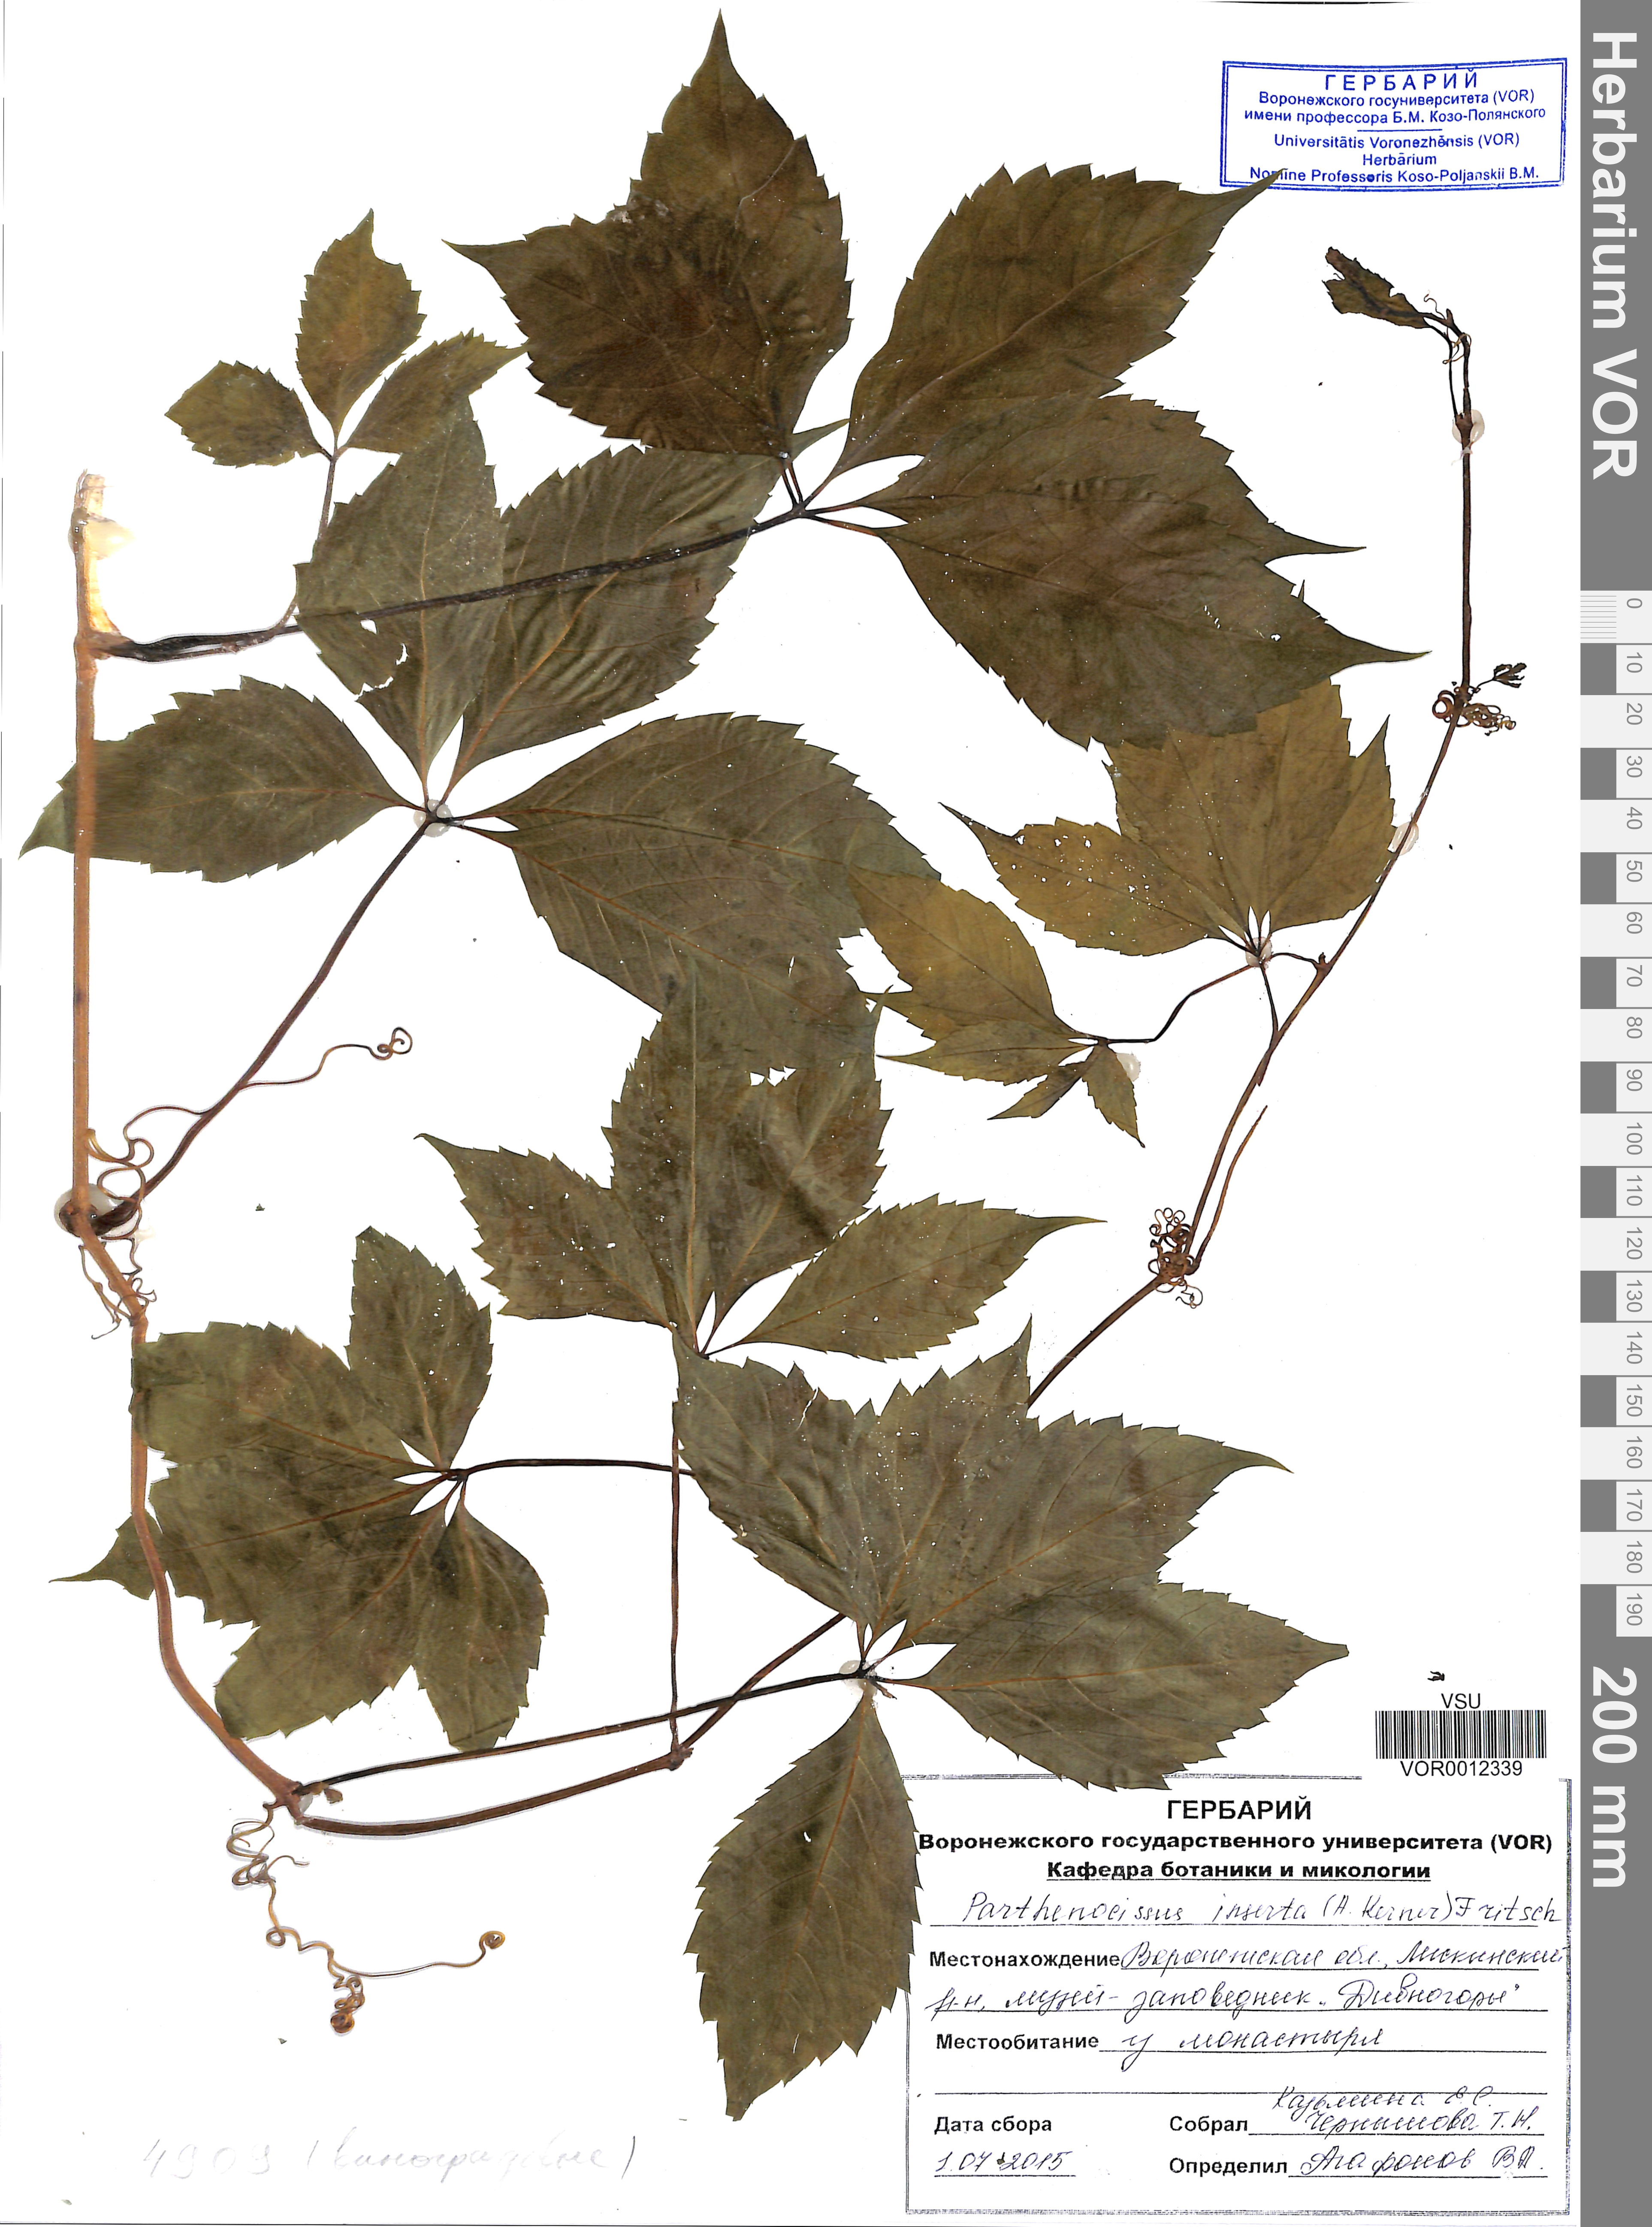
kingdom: Plantae
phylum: Tracheophyta
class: Magnoliopsida
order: Vitales
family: Vitaceae
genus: Parthenocissus
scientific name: Parthenocissus inserta
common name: False virginia-creeper
